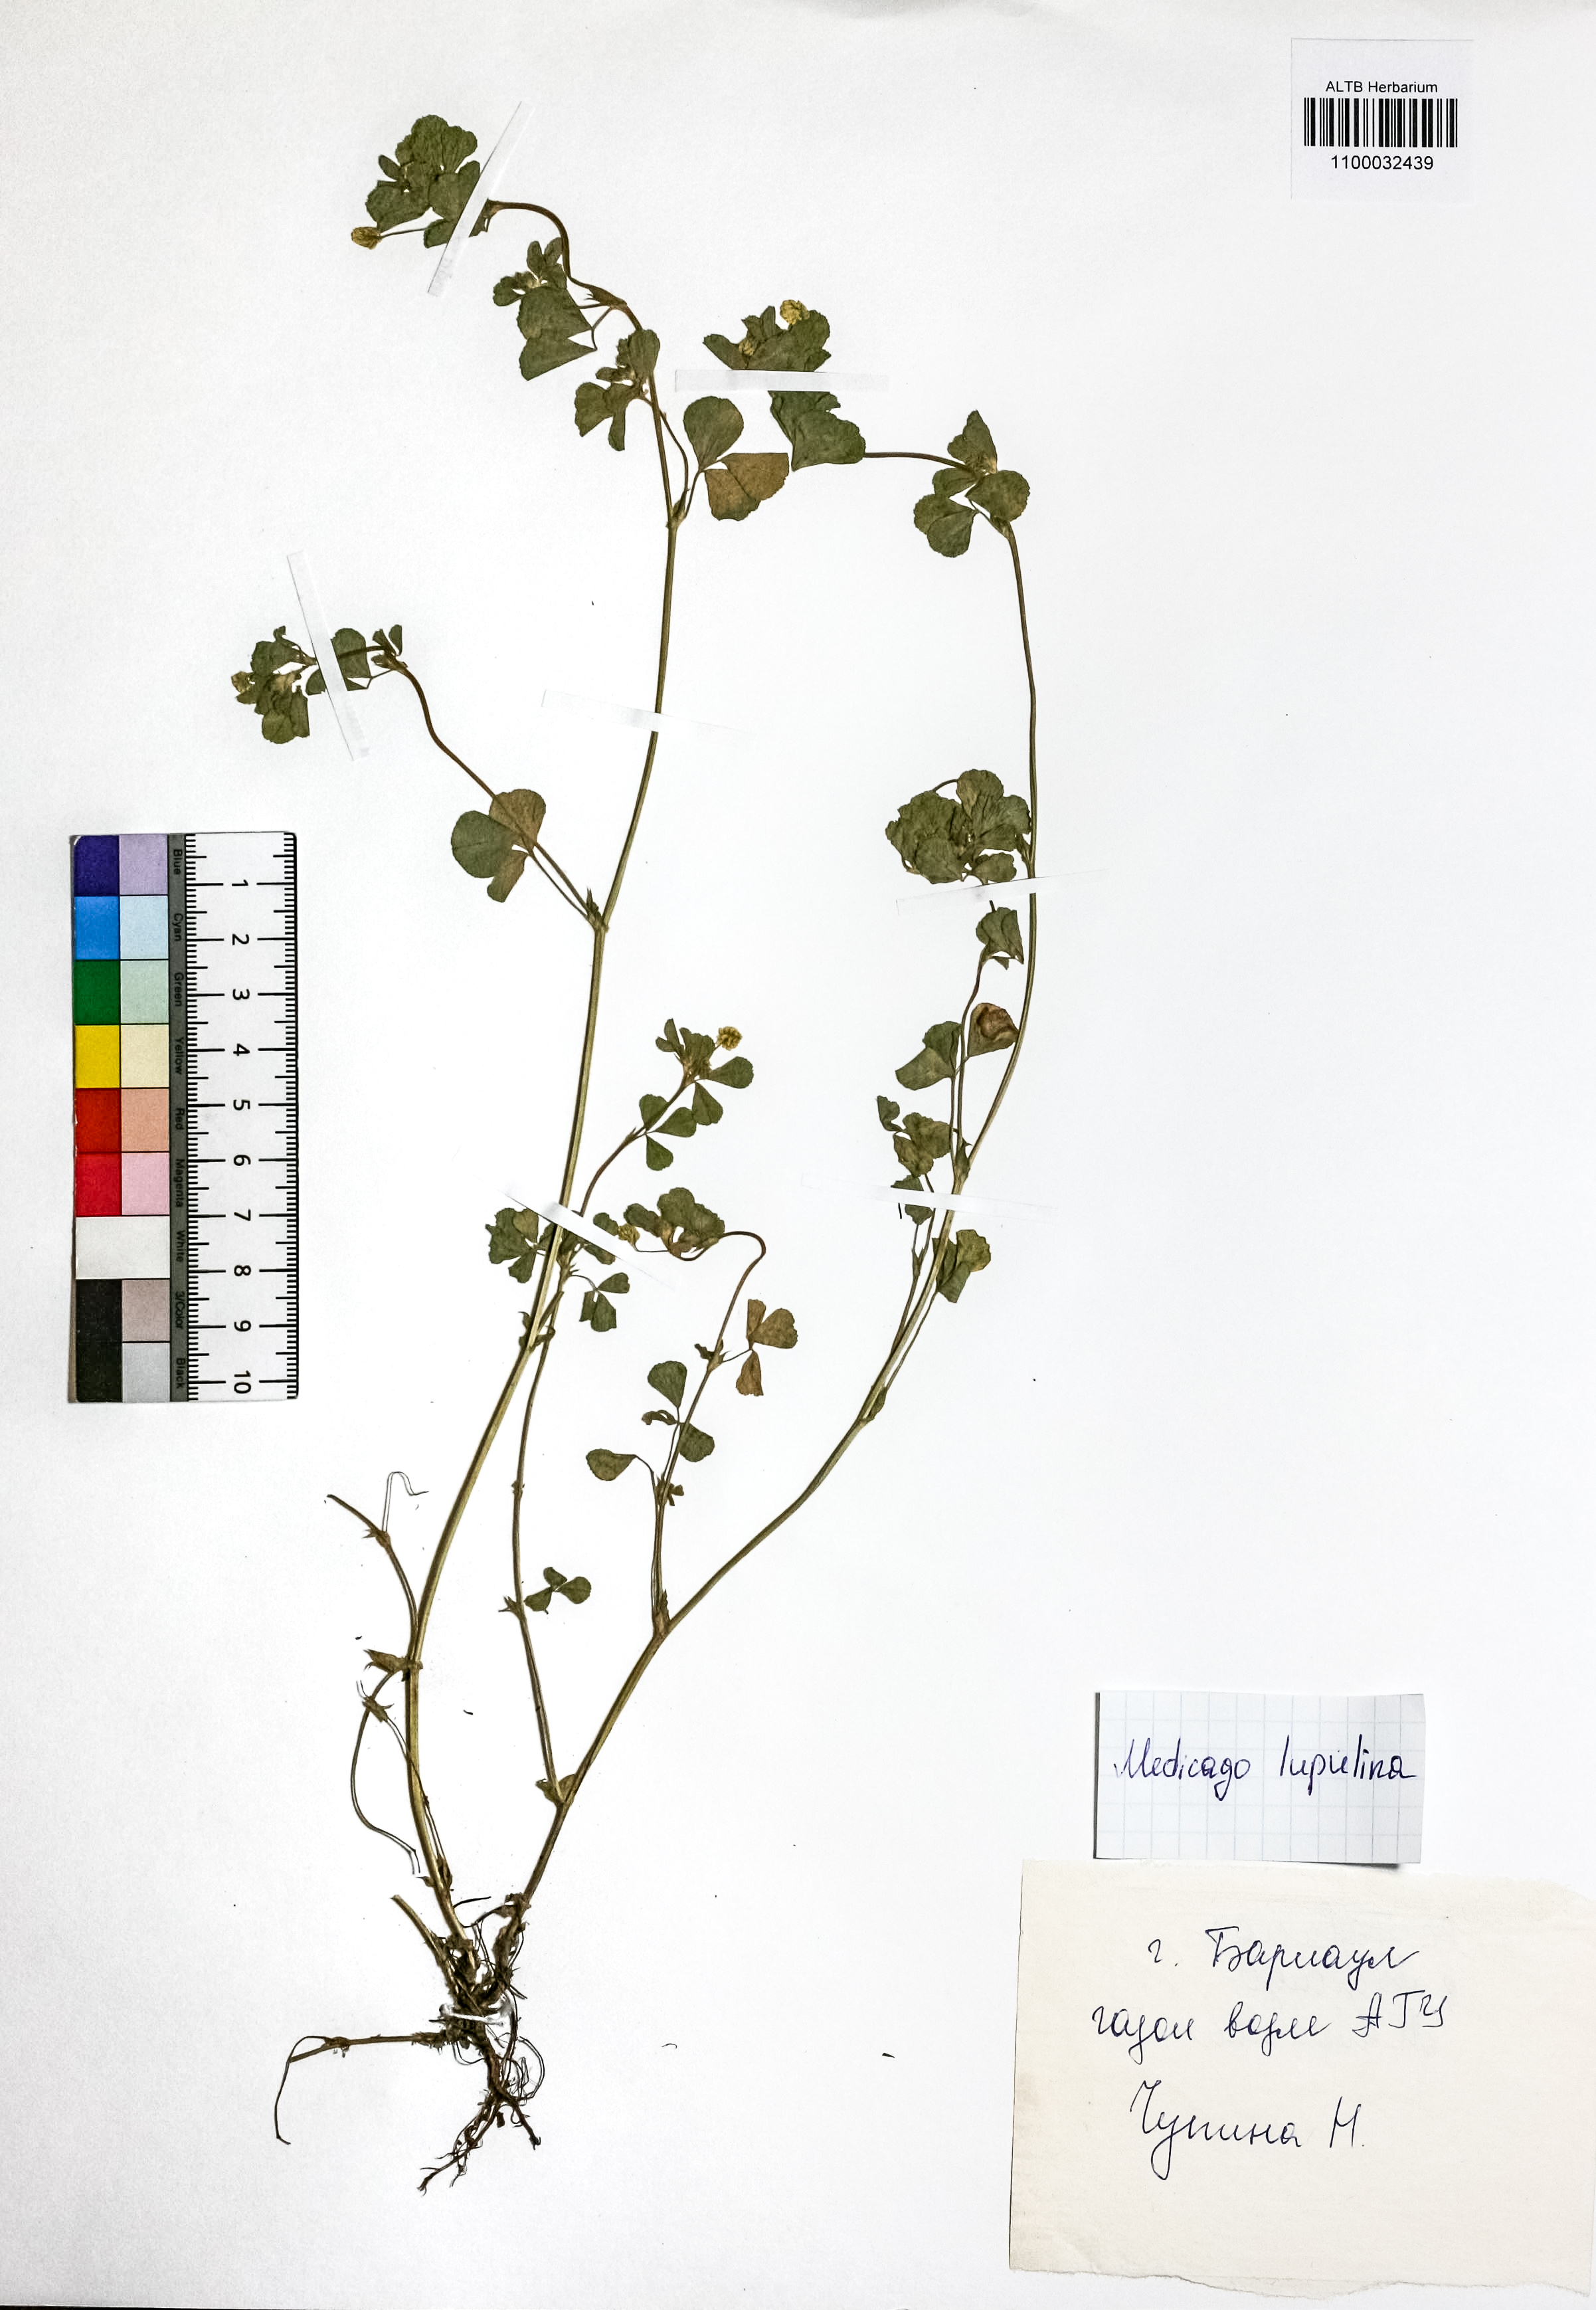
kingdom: Plantae
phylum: Tracheophyta
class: Magnoliopsida
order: Fabales
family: Fabaceae
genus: Medicago
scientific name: Medicago lupulina
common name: Black medick
